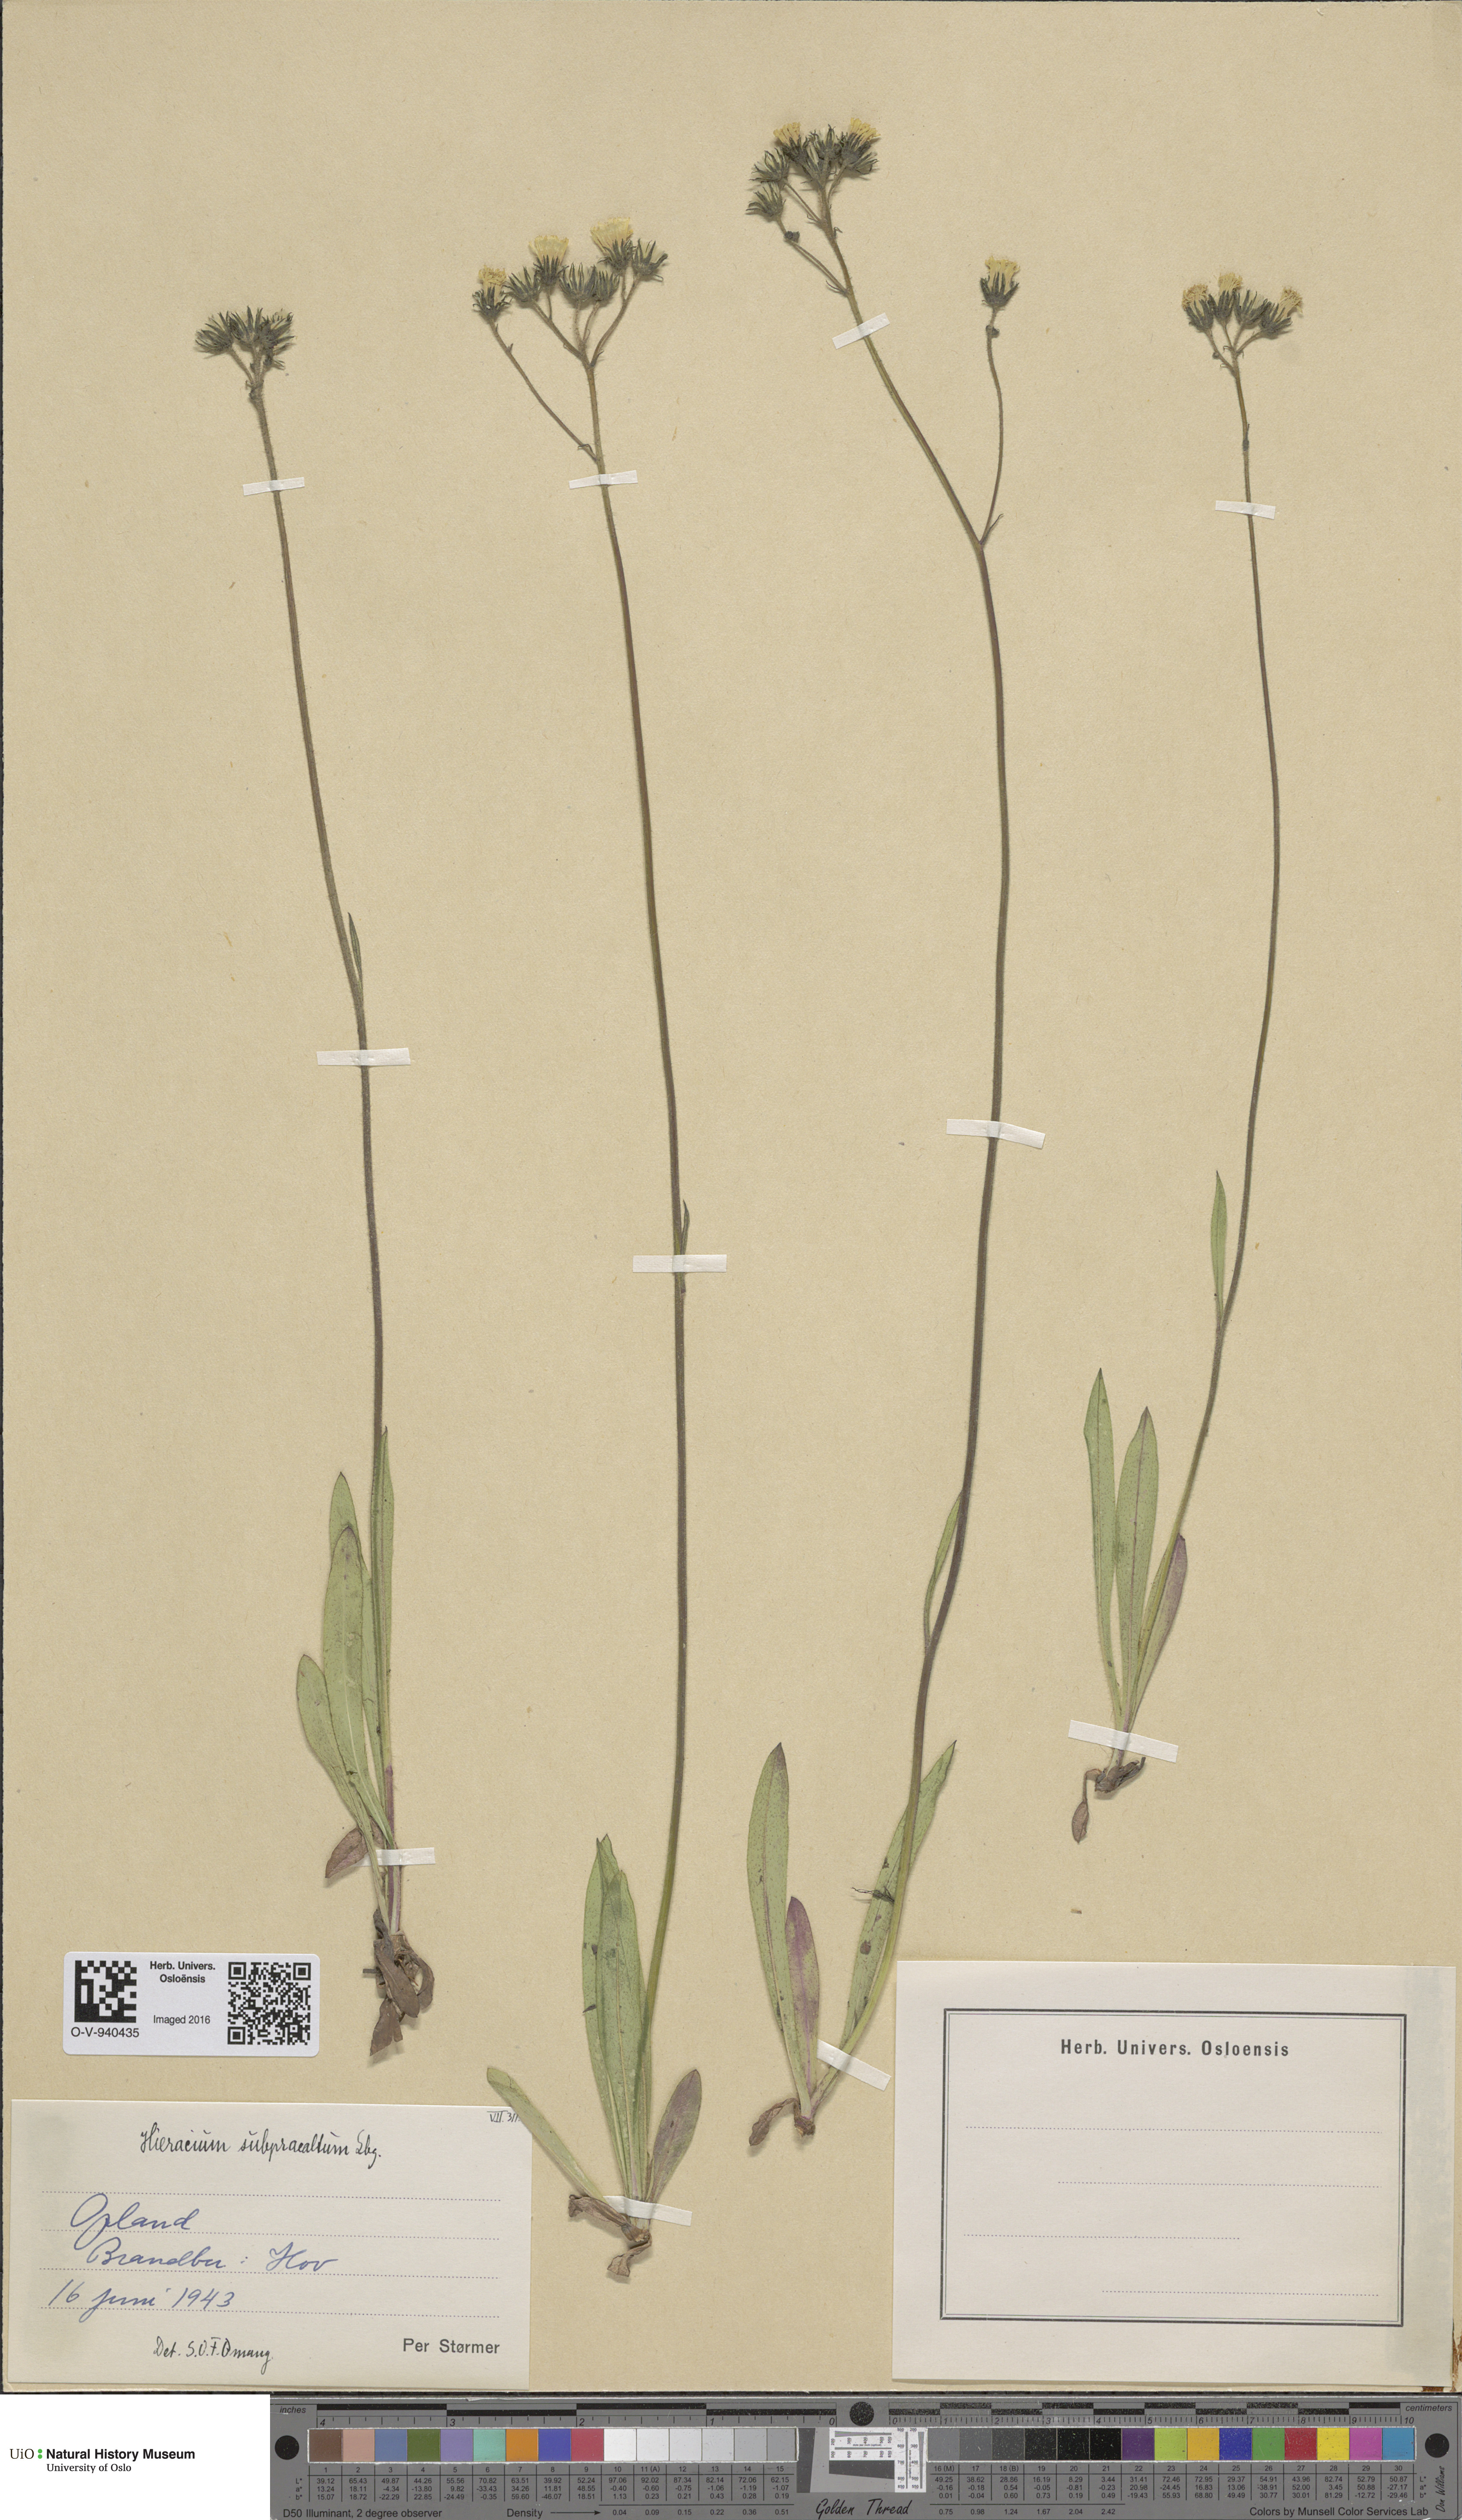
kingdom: Plantae
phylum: Tracheophyta
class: Magnoliopsida
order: Asterales
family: Asteraceae
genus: Pilosella
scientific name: Pilosella glomerata
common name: Queen devil hawkweed
